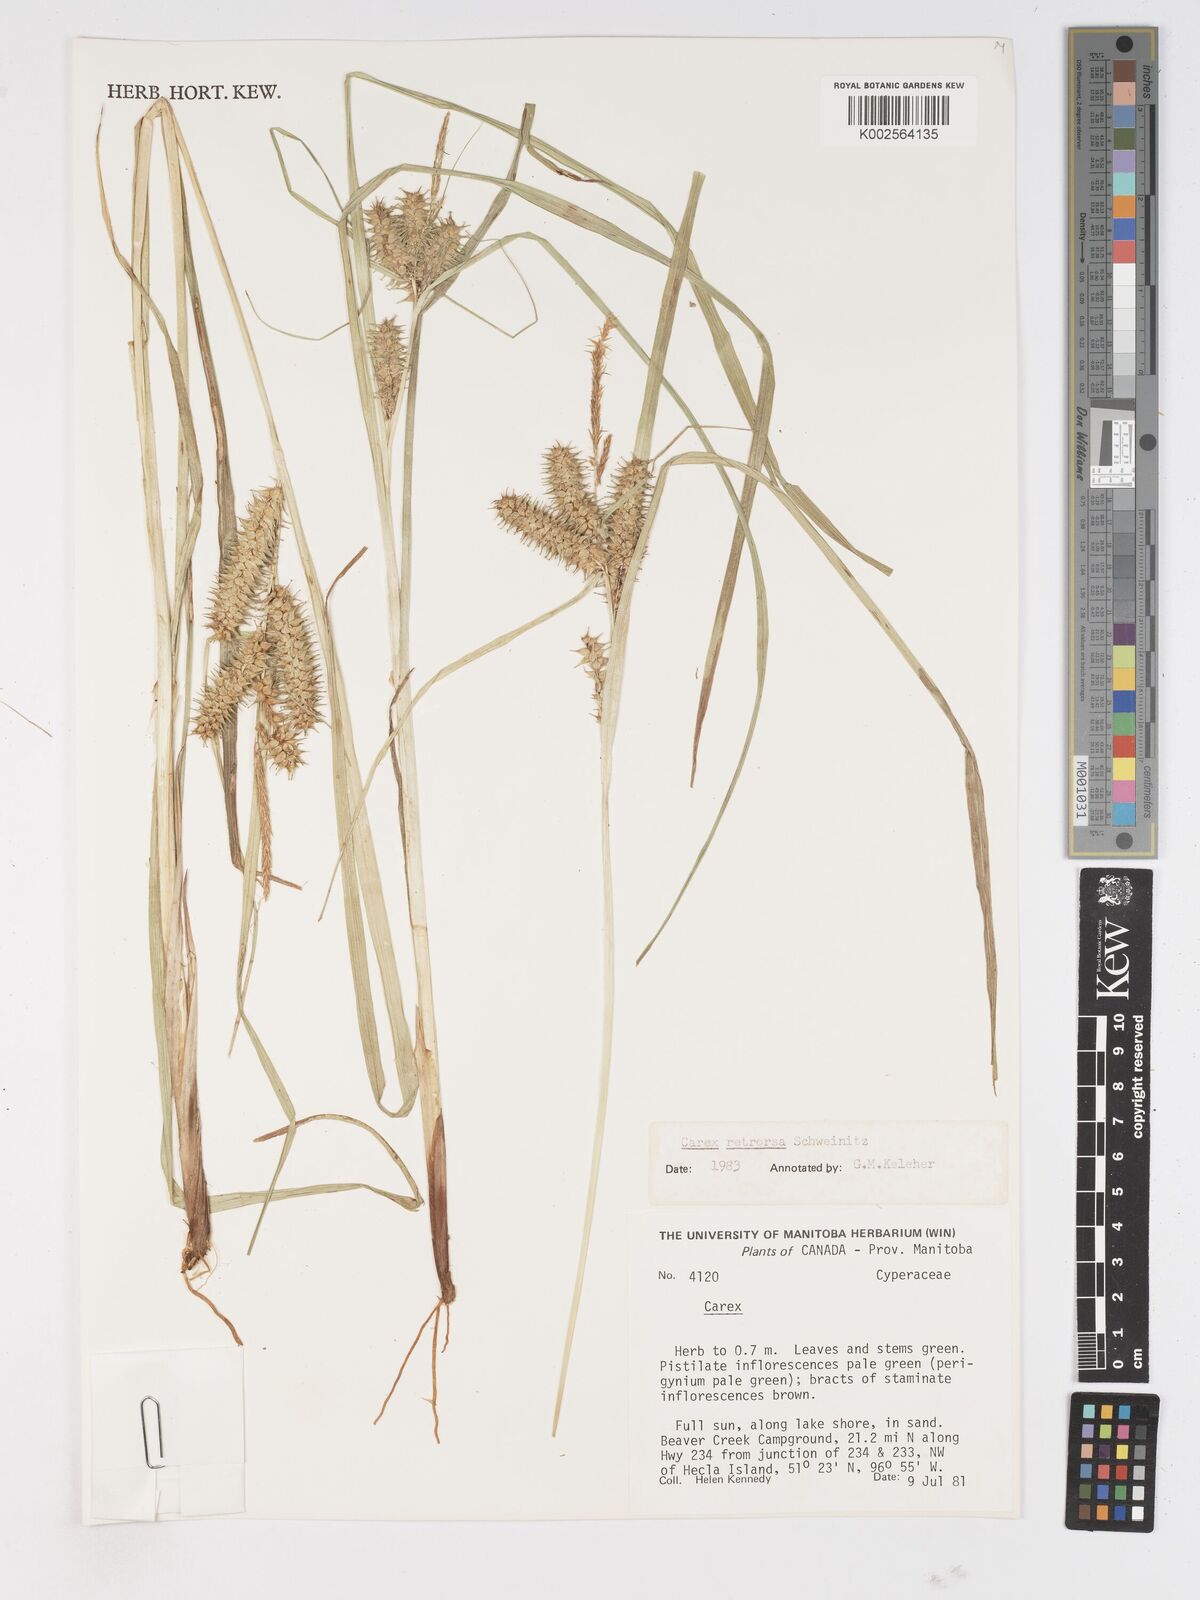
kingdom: Plantae
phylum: Tracheophyta
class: Liliopsida
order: Poales
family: Cyperaceae
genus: Carex
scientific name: Carex retrorsa
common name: Knot-sheath sedge
